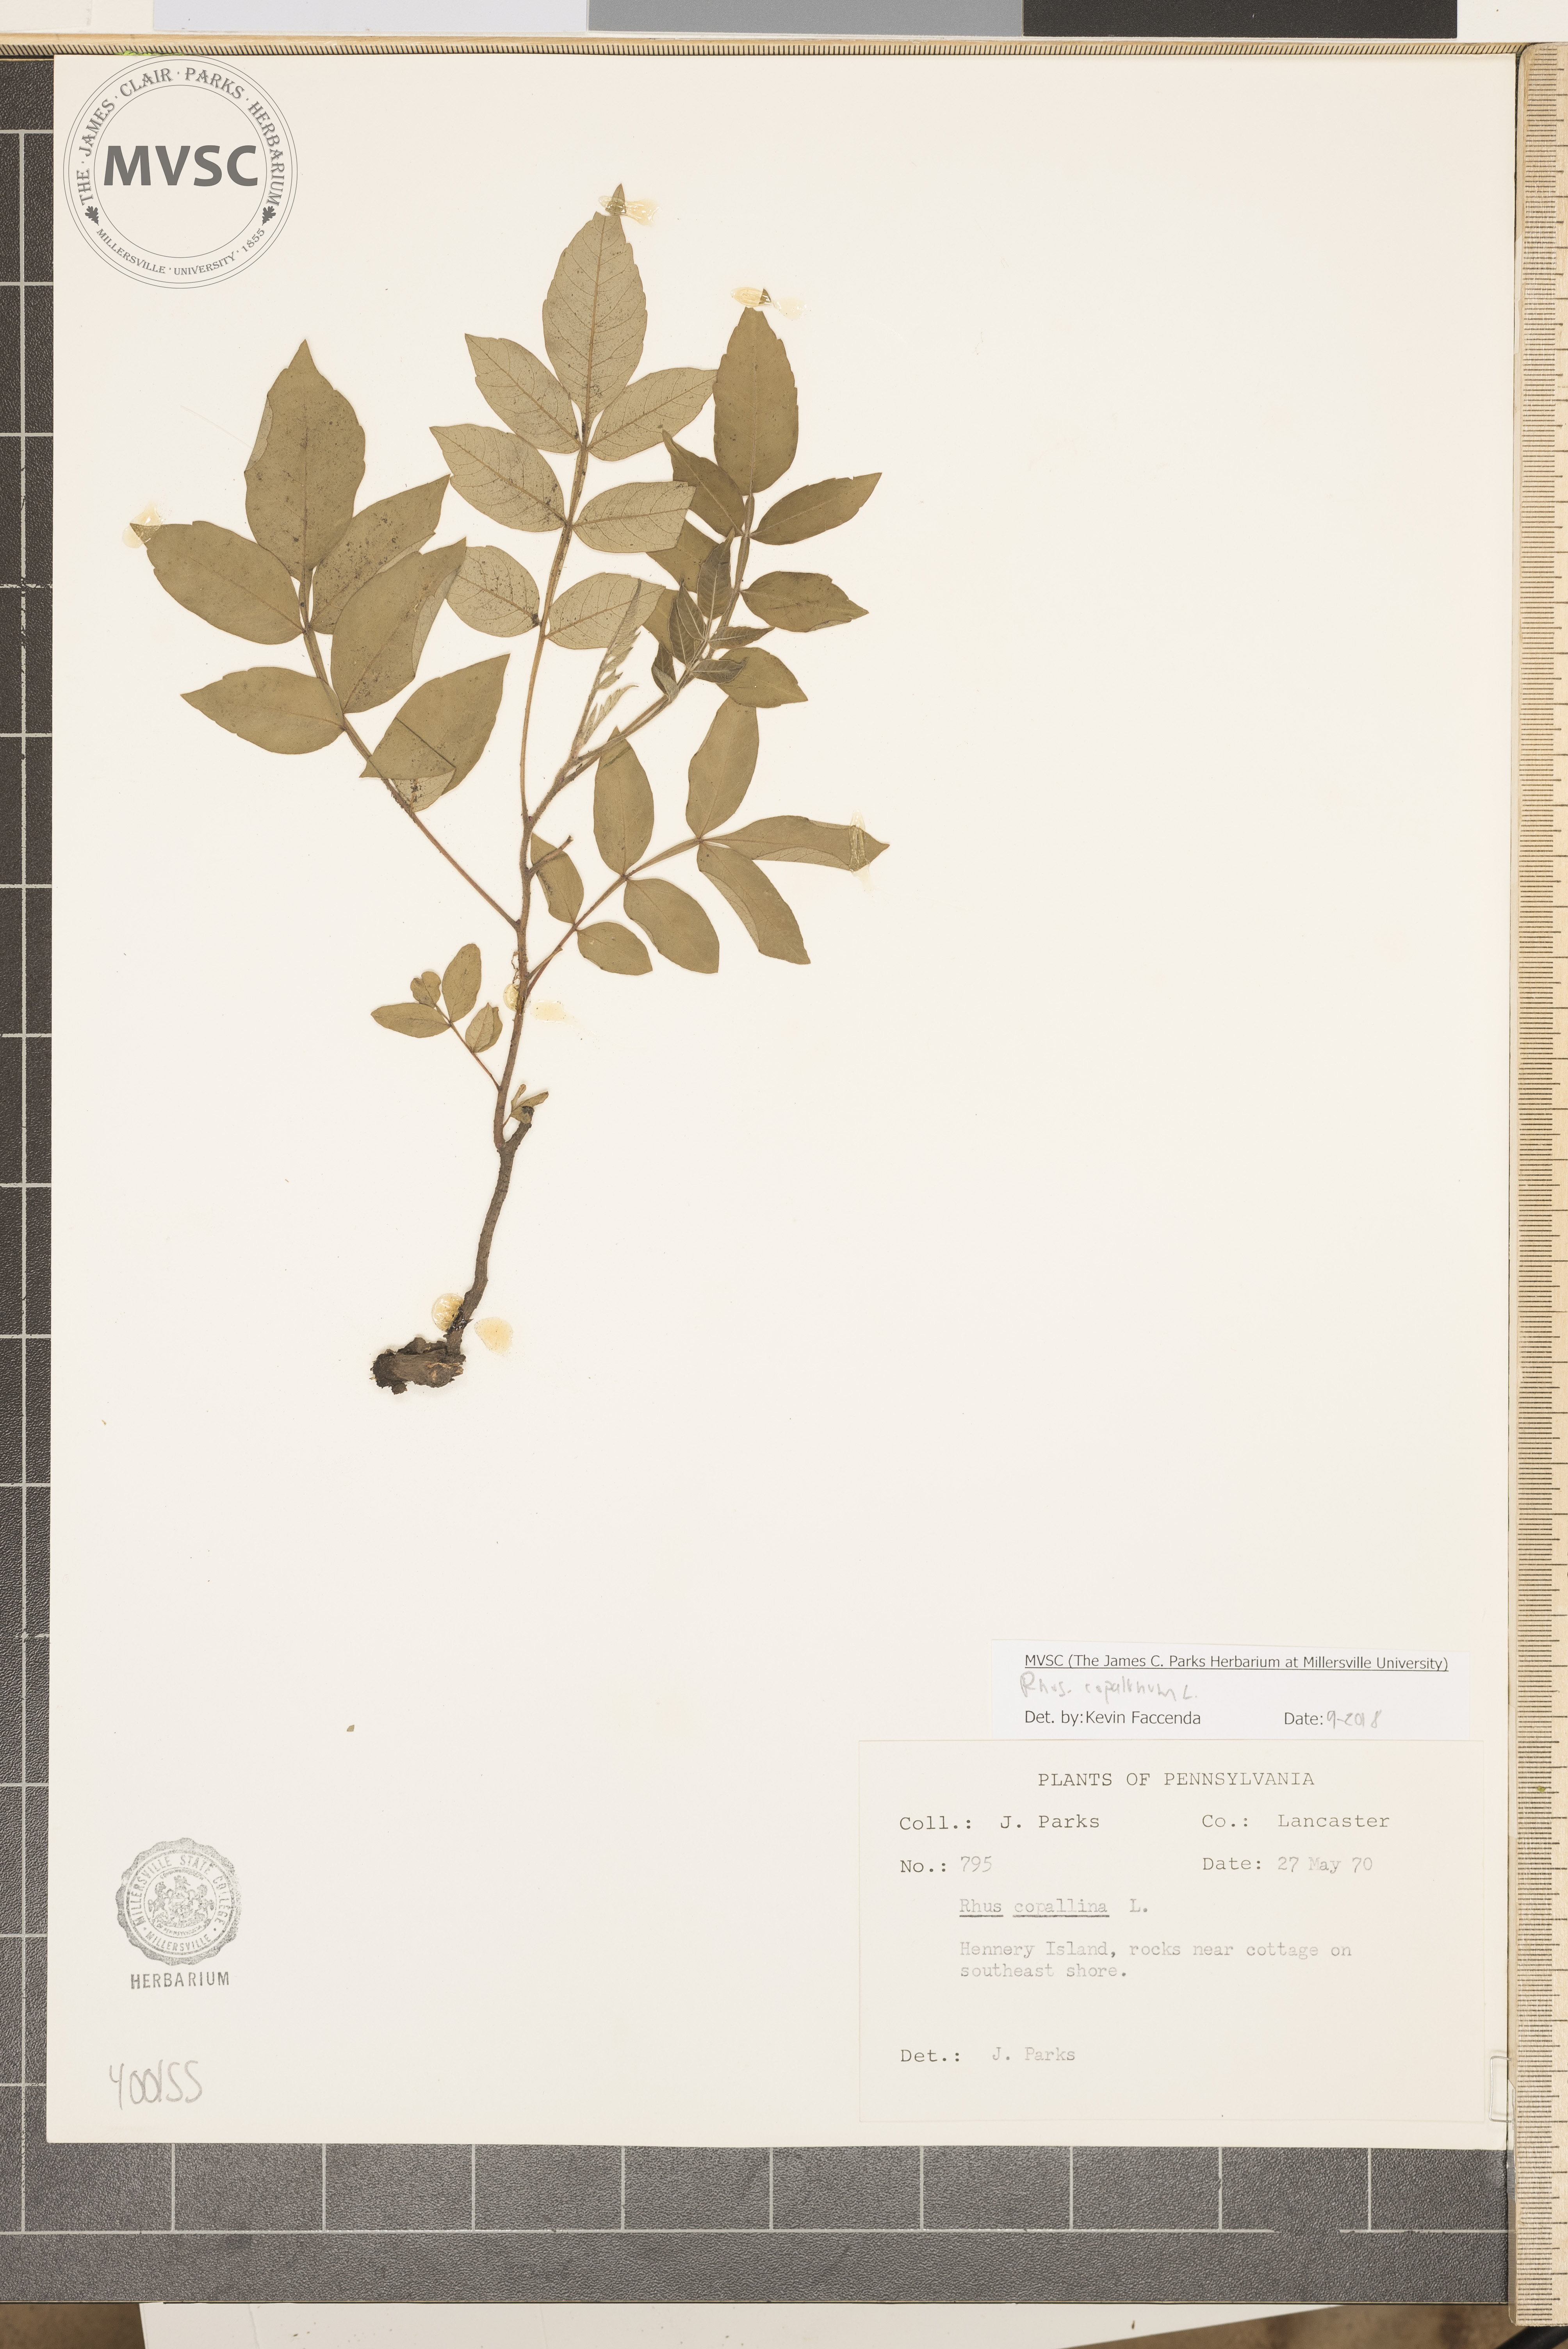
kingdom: Plantae
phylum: Tracheophyta
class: Magnoliopsida
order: Sapindales
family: Anacardiaceae
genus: Rhus
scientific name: Rhus copallina
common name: sumac
